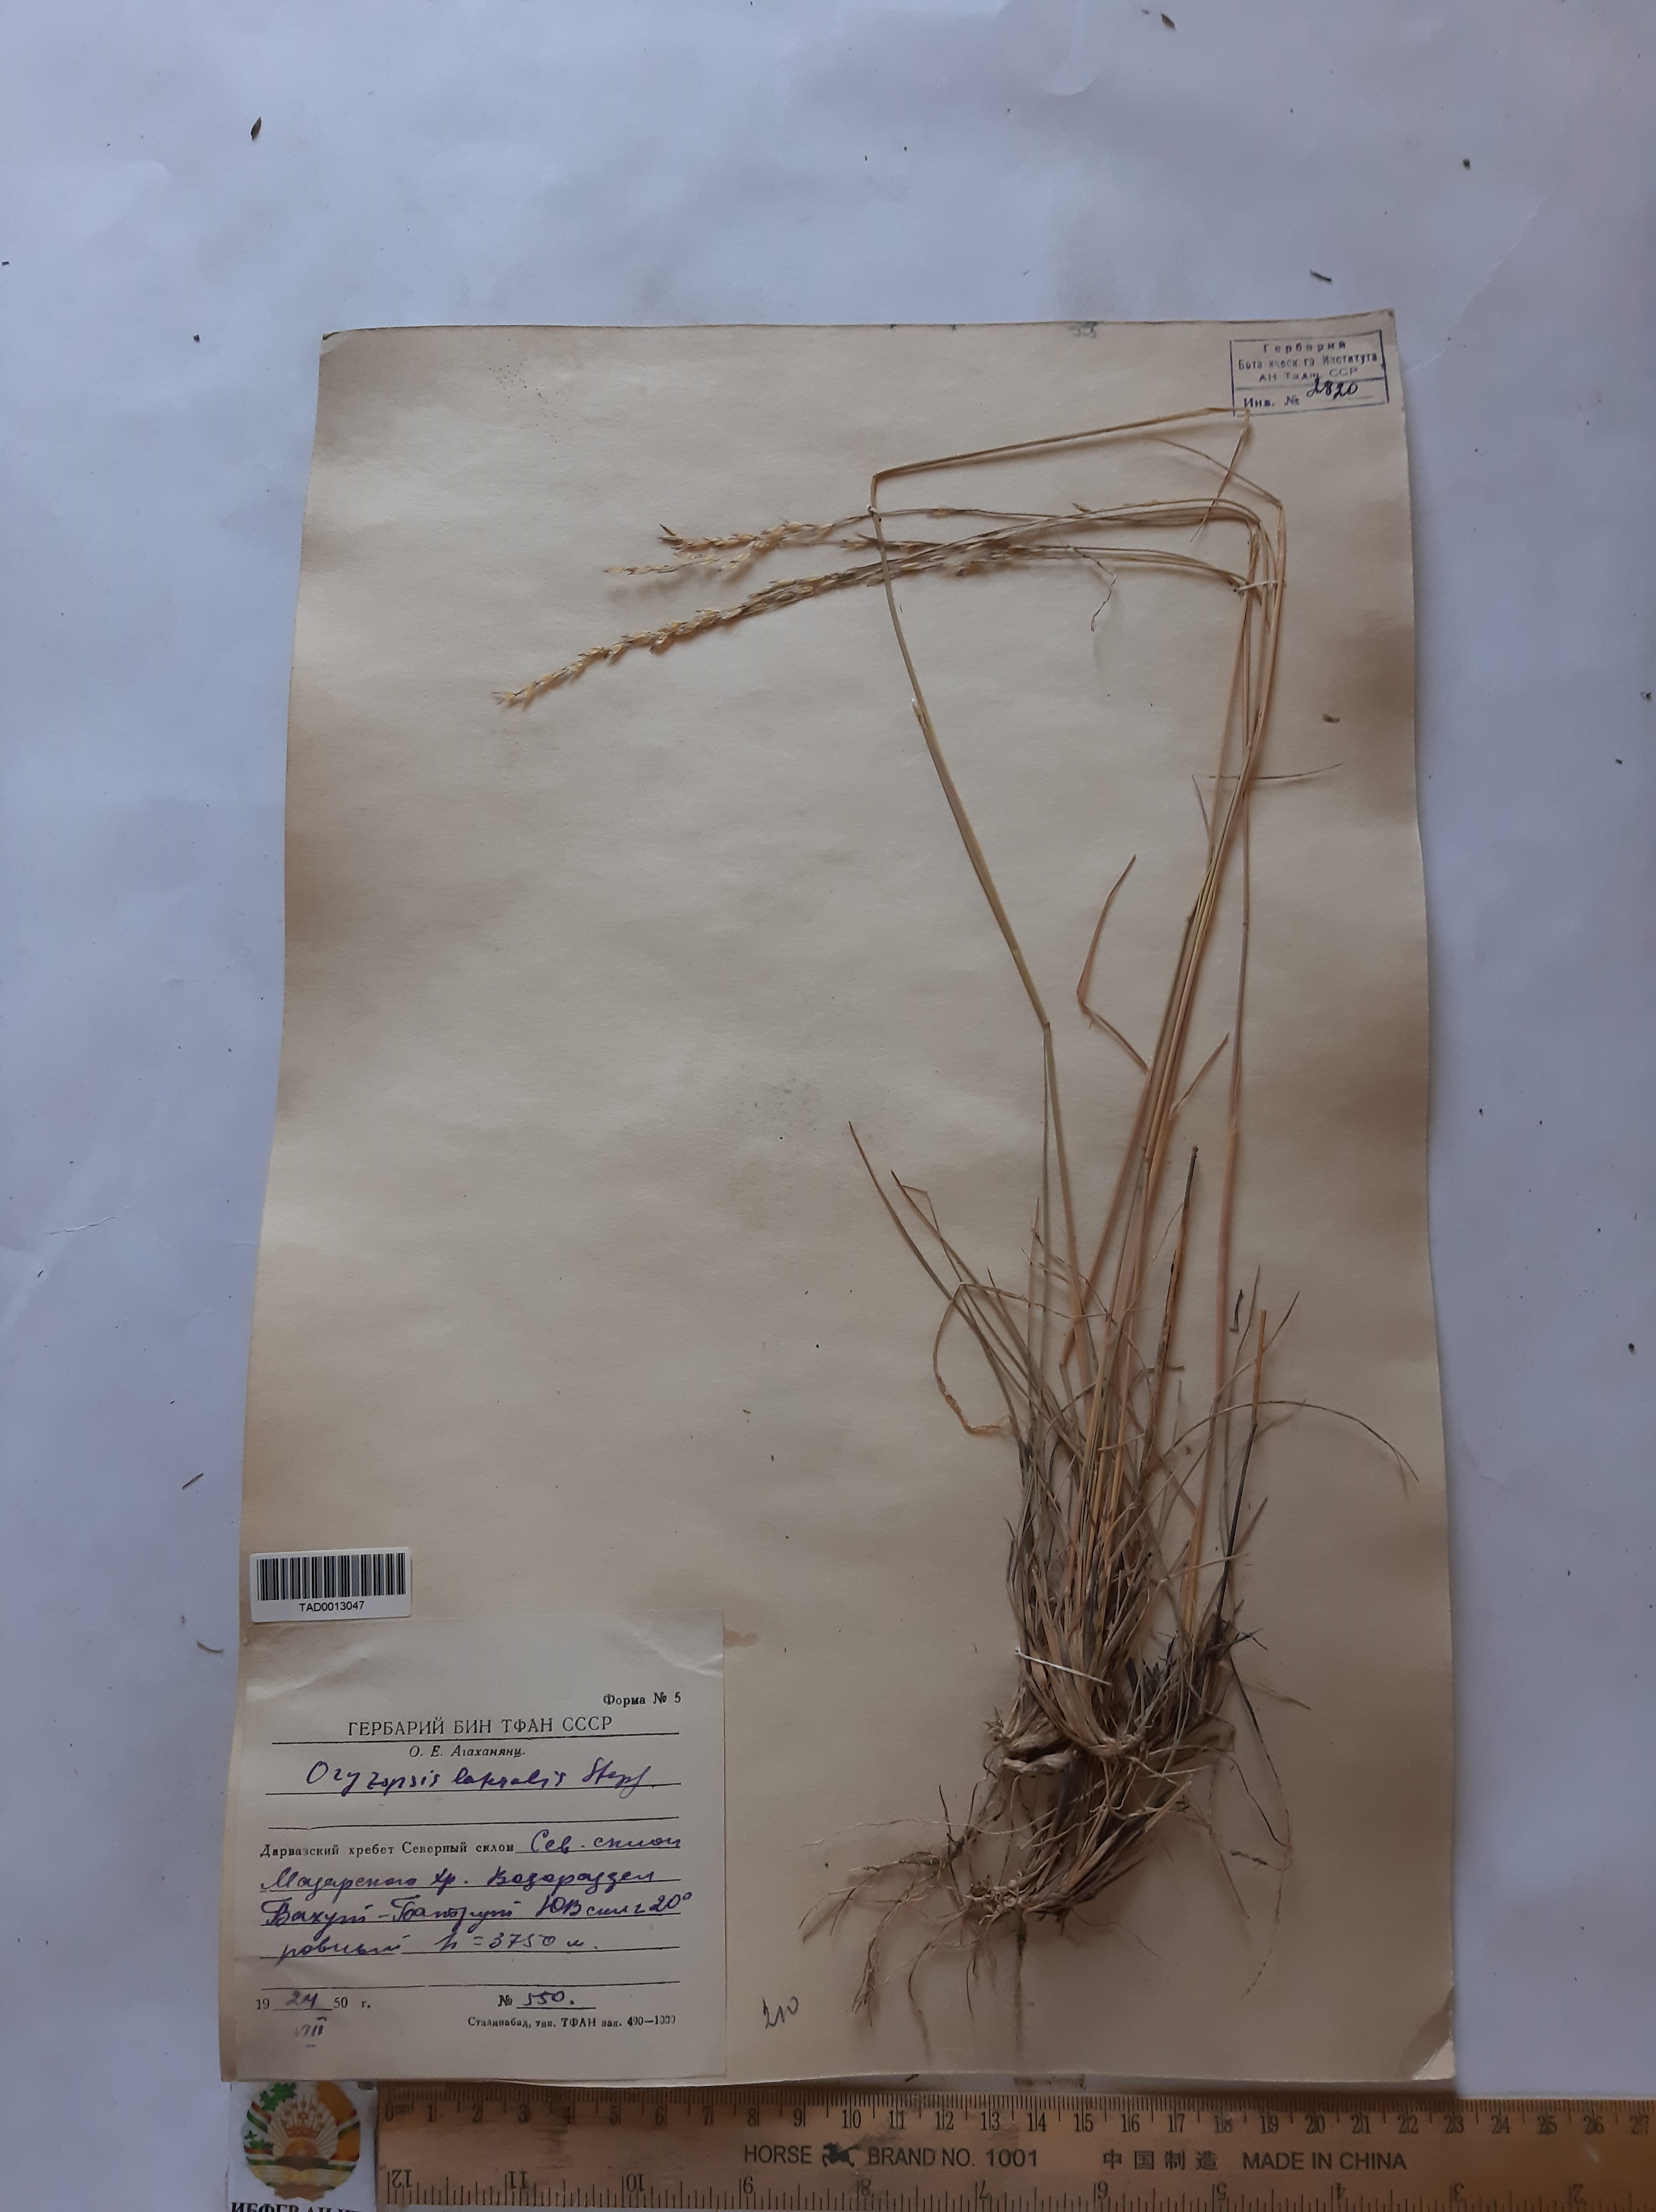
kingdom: Plantae
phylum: Tracheophyta
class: Liliopsida
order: Poales
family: Poaceae
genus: Piptatherum
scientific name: Piptatherum laterale
